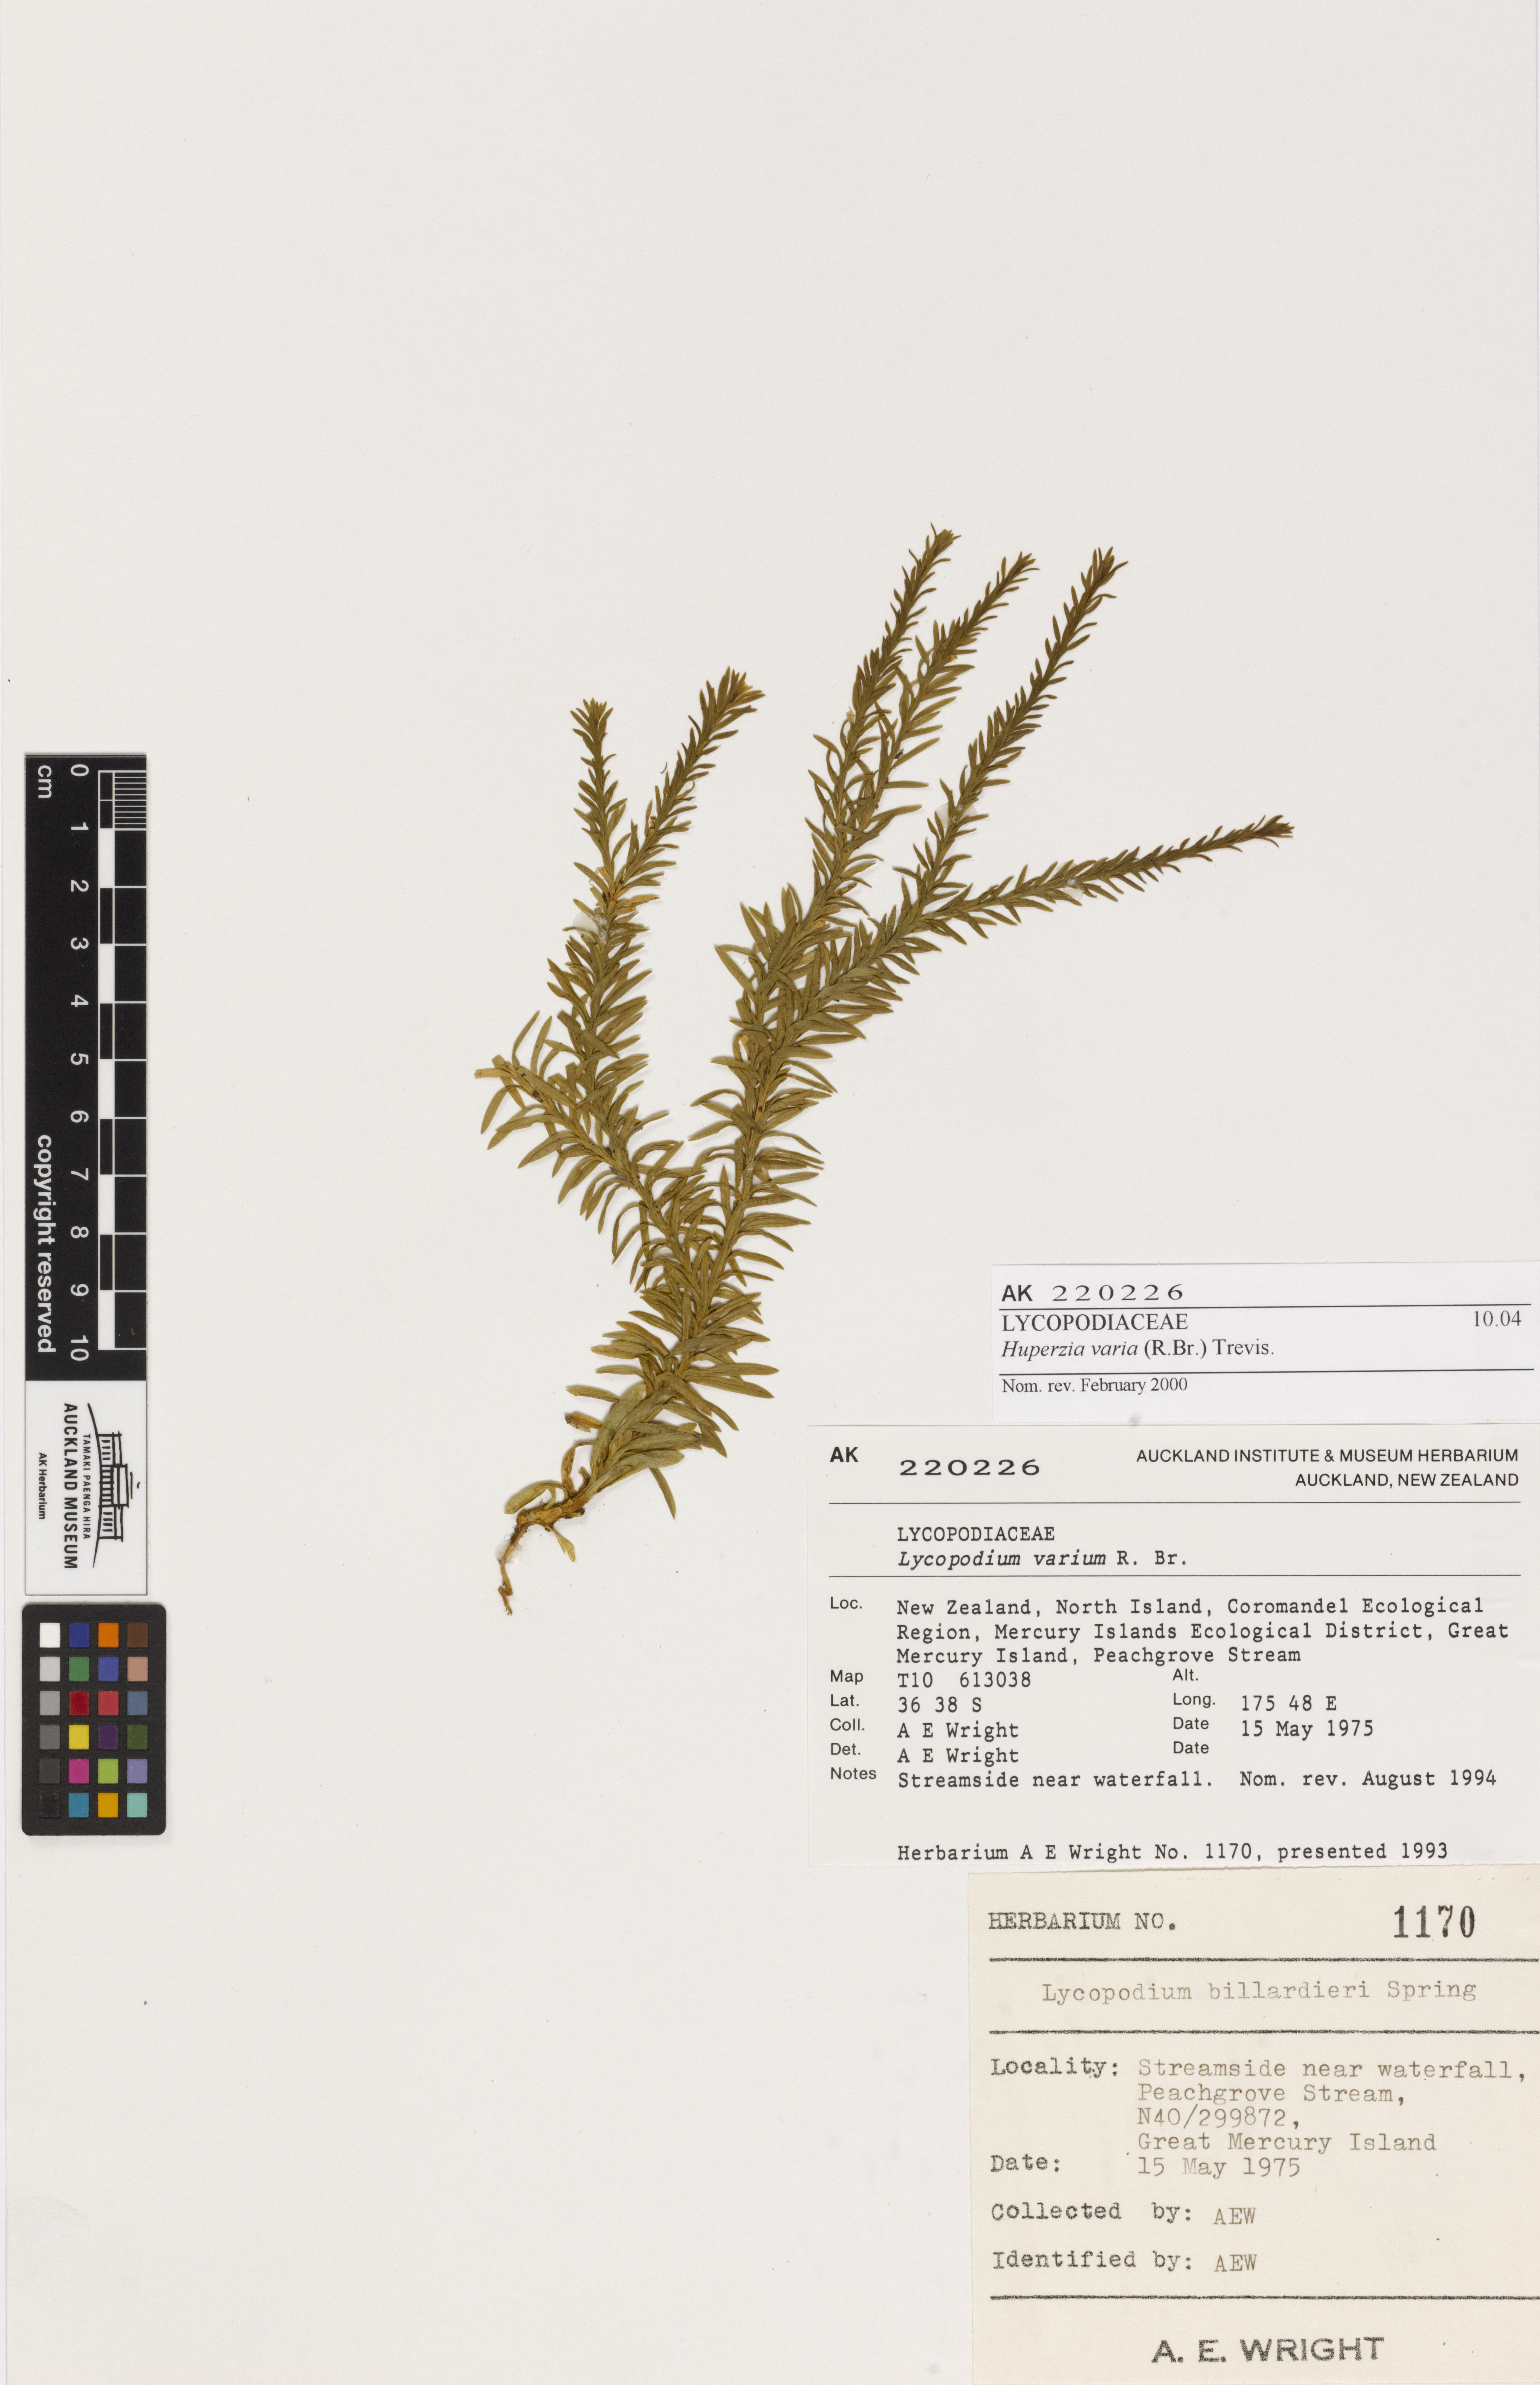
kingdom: Plantae
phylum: Tracheophyta
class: Lycopodiopsida
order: Lycopodiales
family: Lycopodiaceae
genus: Phlegmariurus
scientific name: Phlegmariurus
